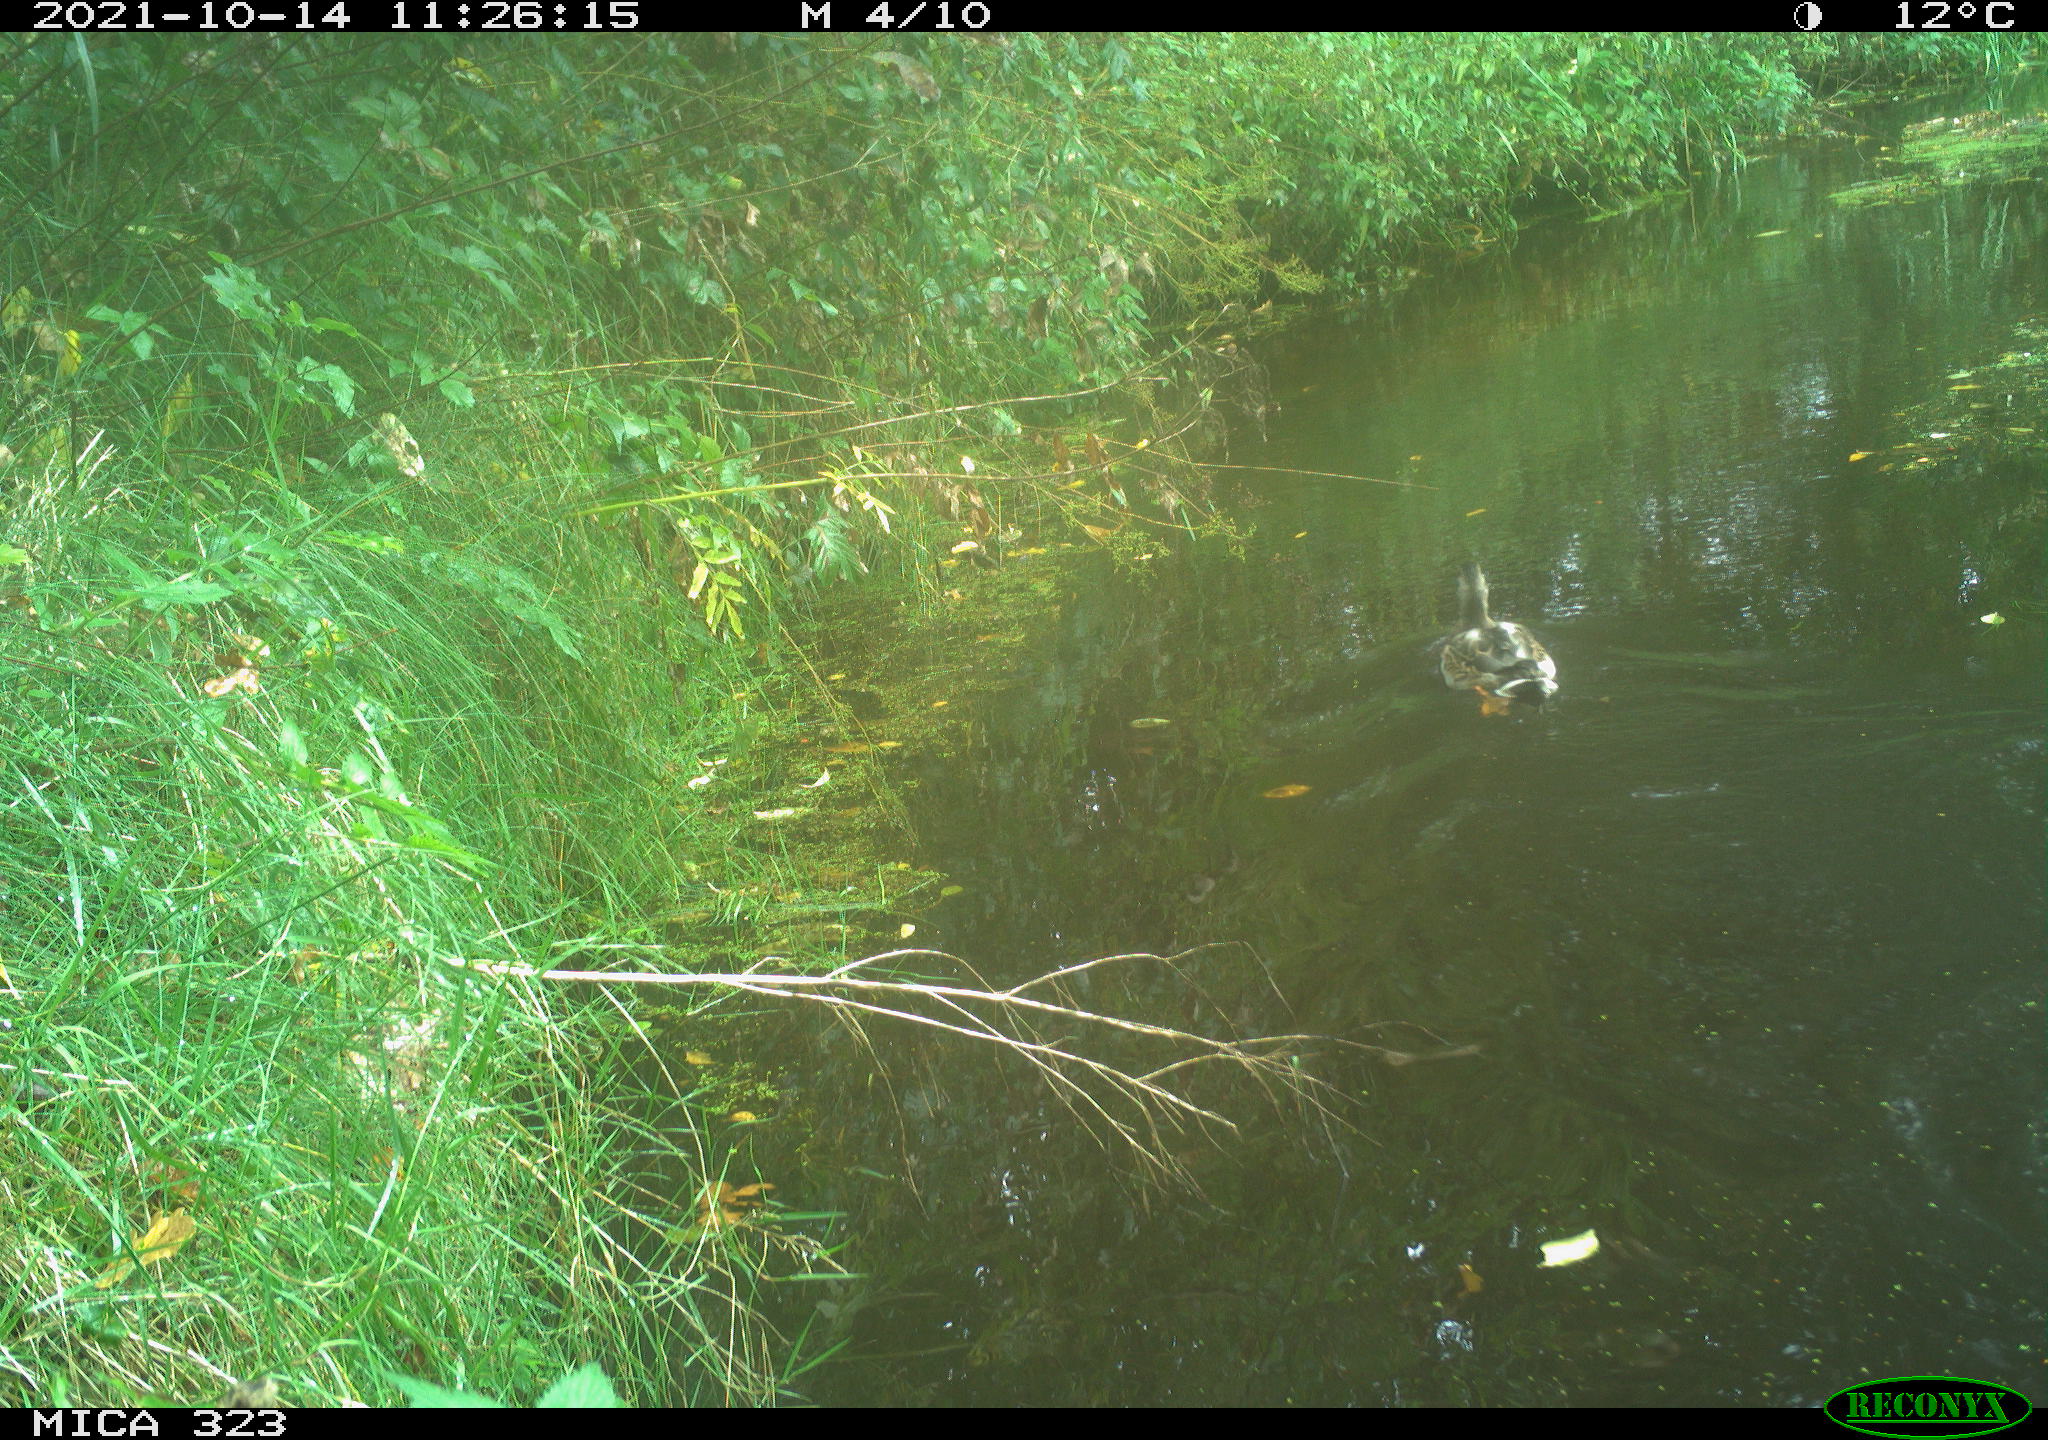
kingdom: Animalia
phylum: Chordata
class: Aves
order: Anseriformes
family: Anatidae
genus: Anas
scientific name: Anas platyrhynchos
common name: Mallard
